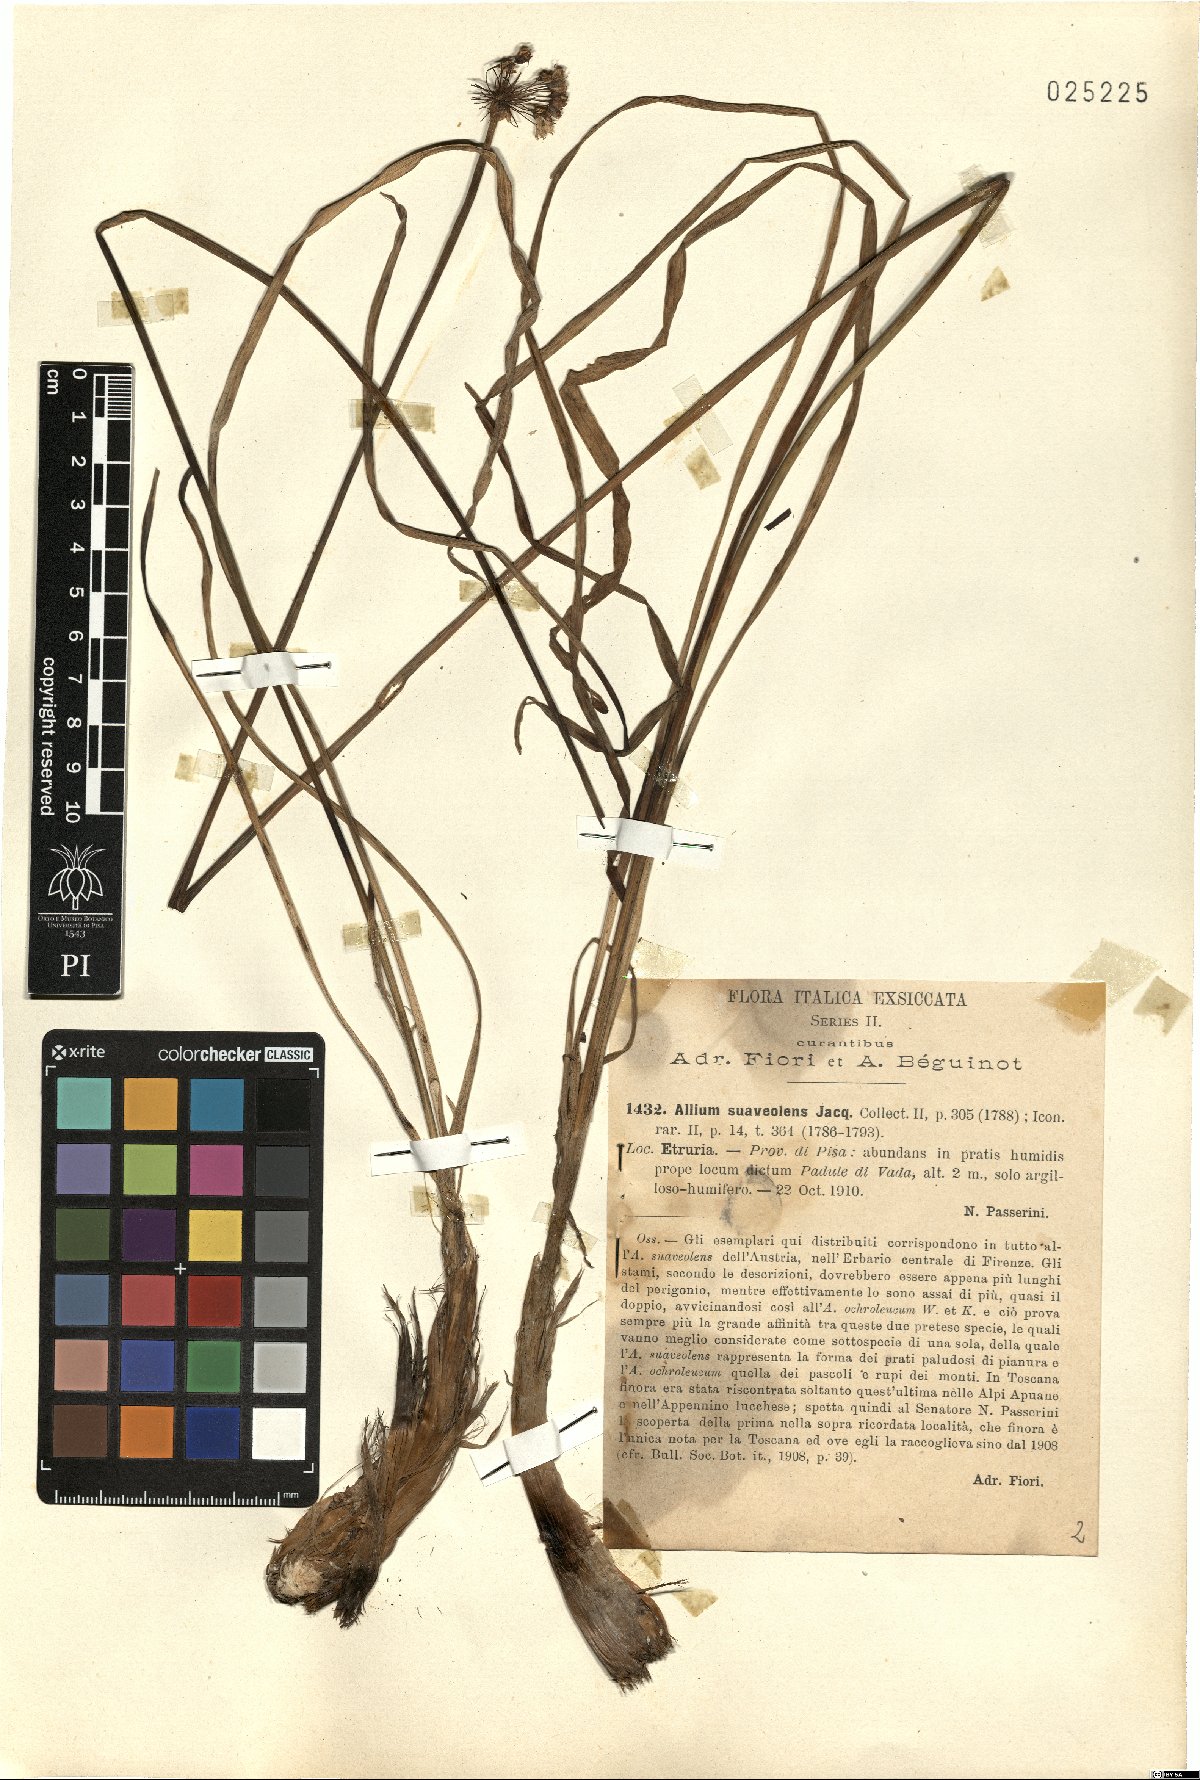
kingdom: Plantae
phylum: Tracheophyta
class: Liliopsida
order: Asparagales
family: Amaryllidaceae
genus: Allium
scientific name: Allium suaveolens
